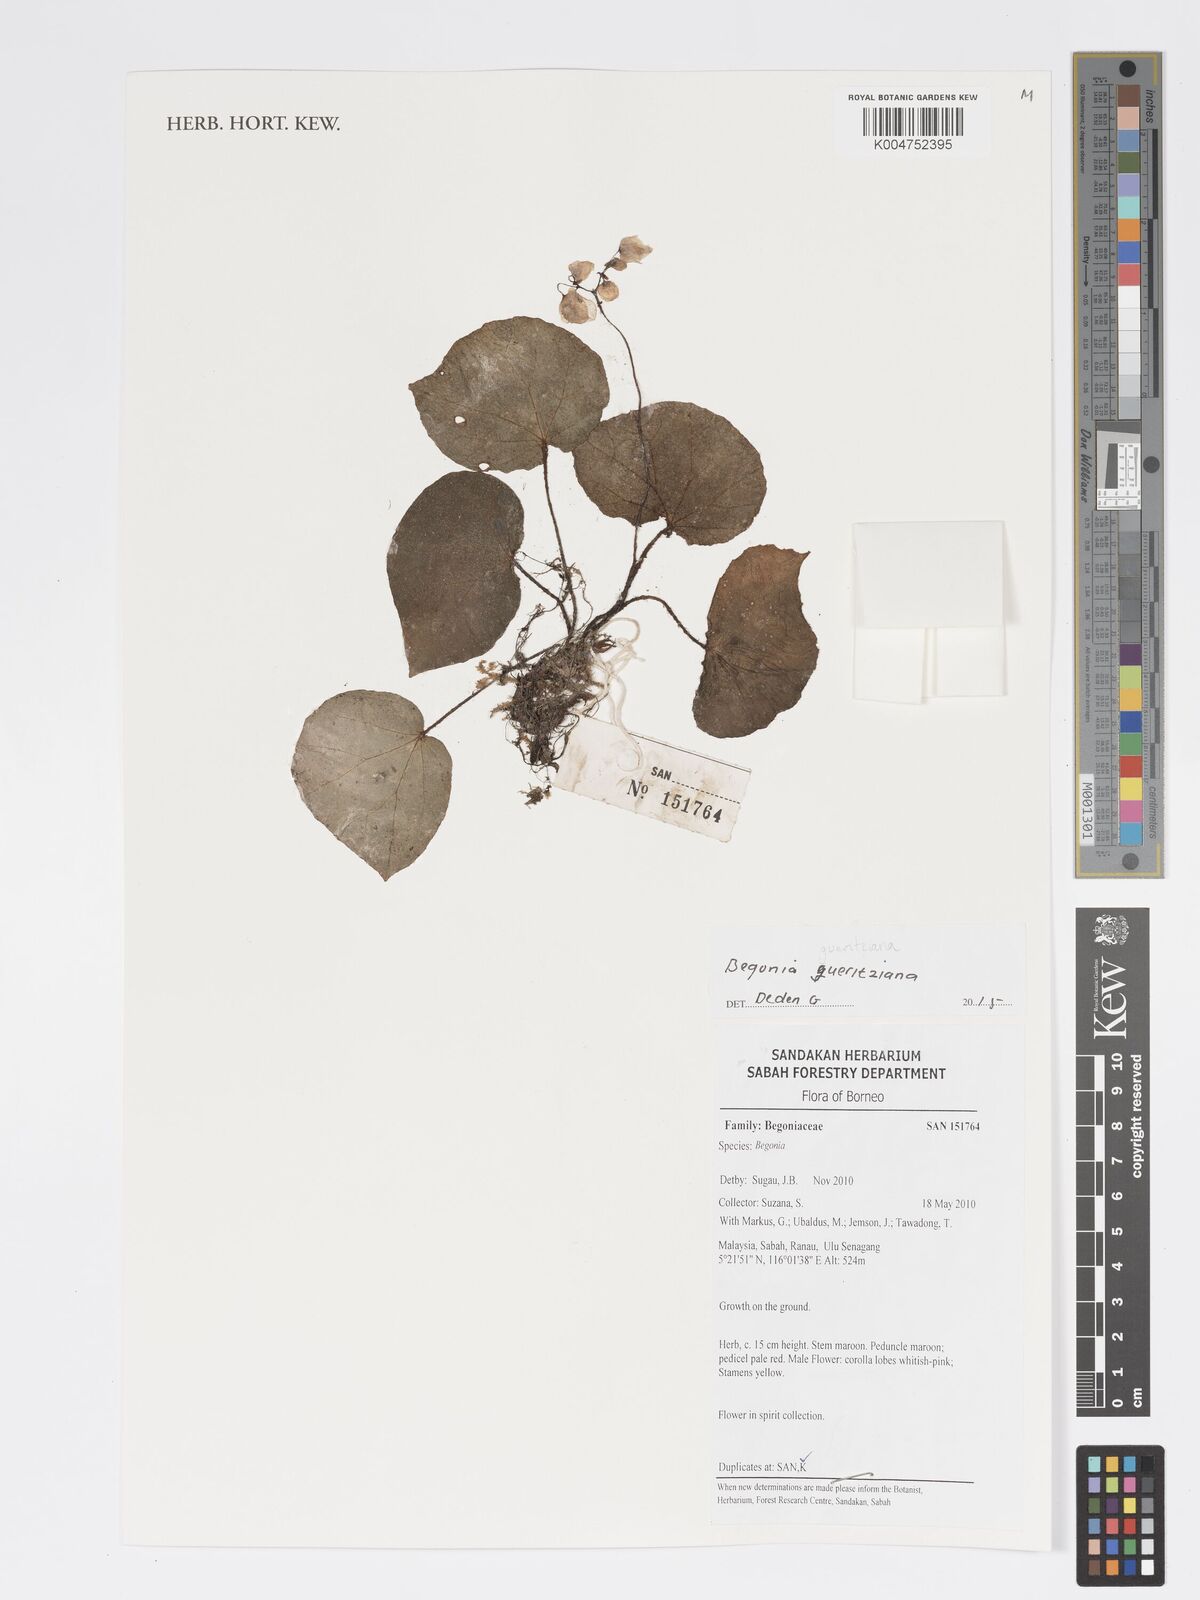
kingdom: Plantae
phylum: Tracheophyta
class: Magnoliopsida
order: Cucurbitales
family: Begoniaceae
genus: Begonia
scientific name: Begonia gueritziana
